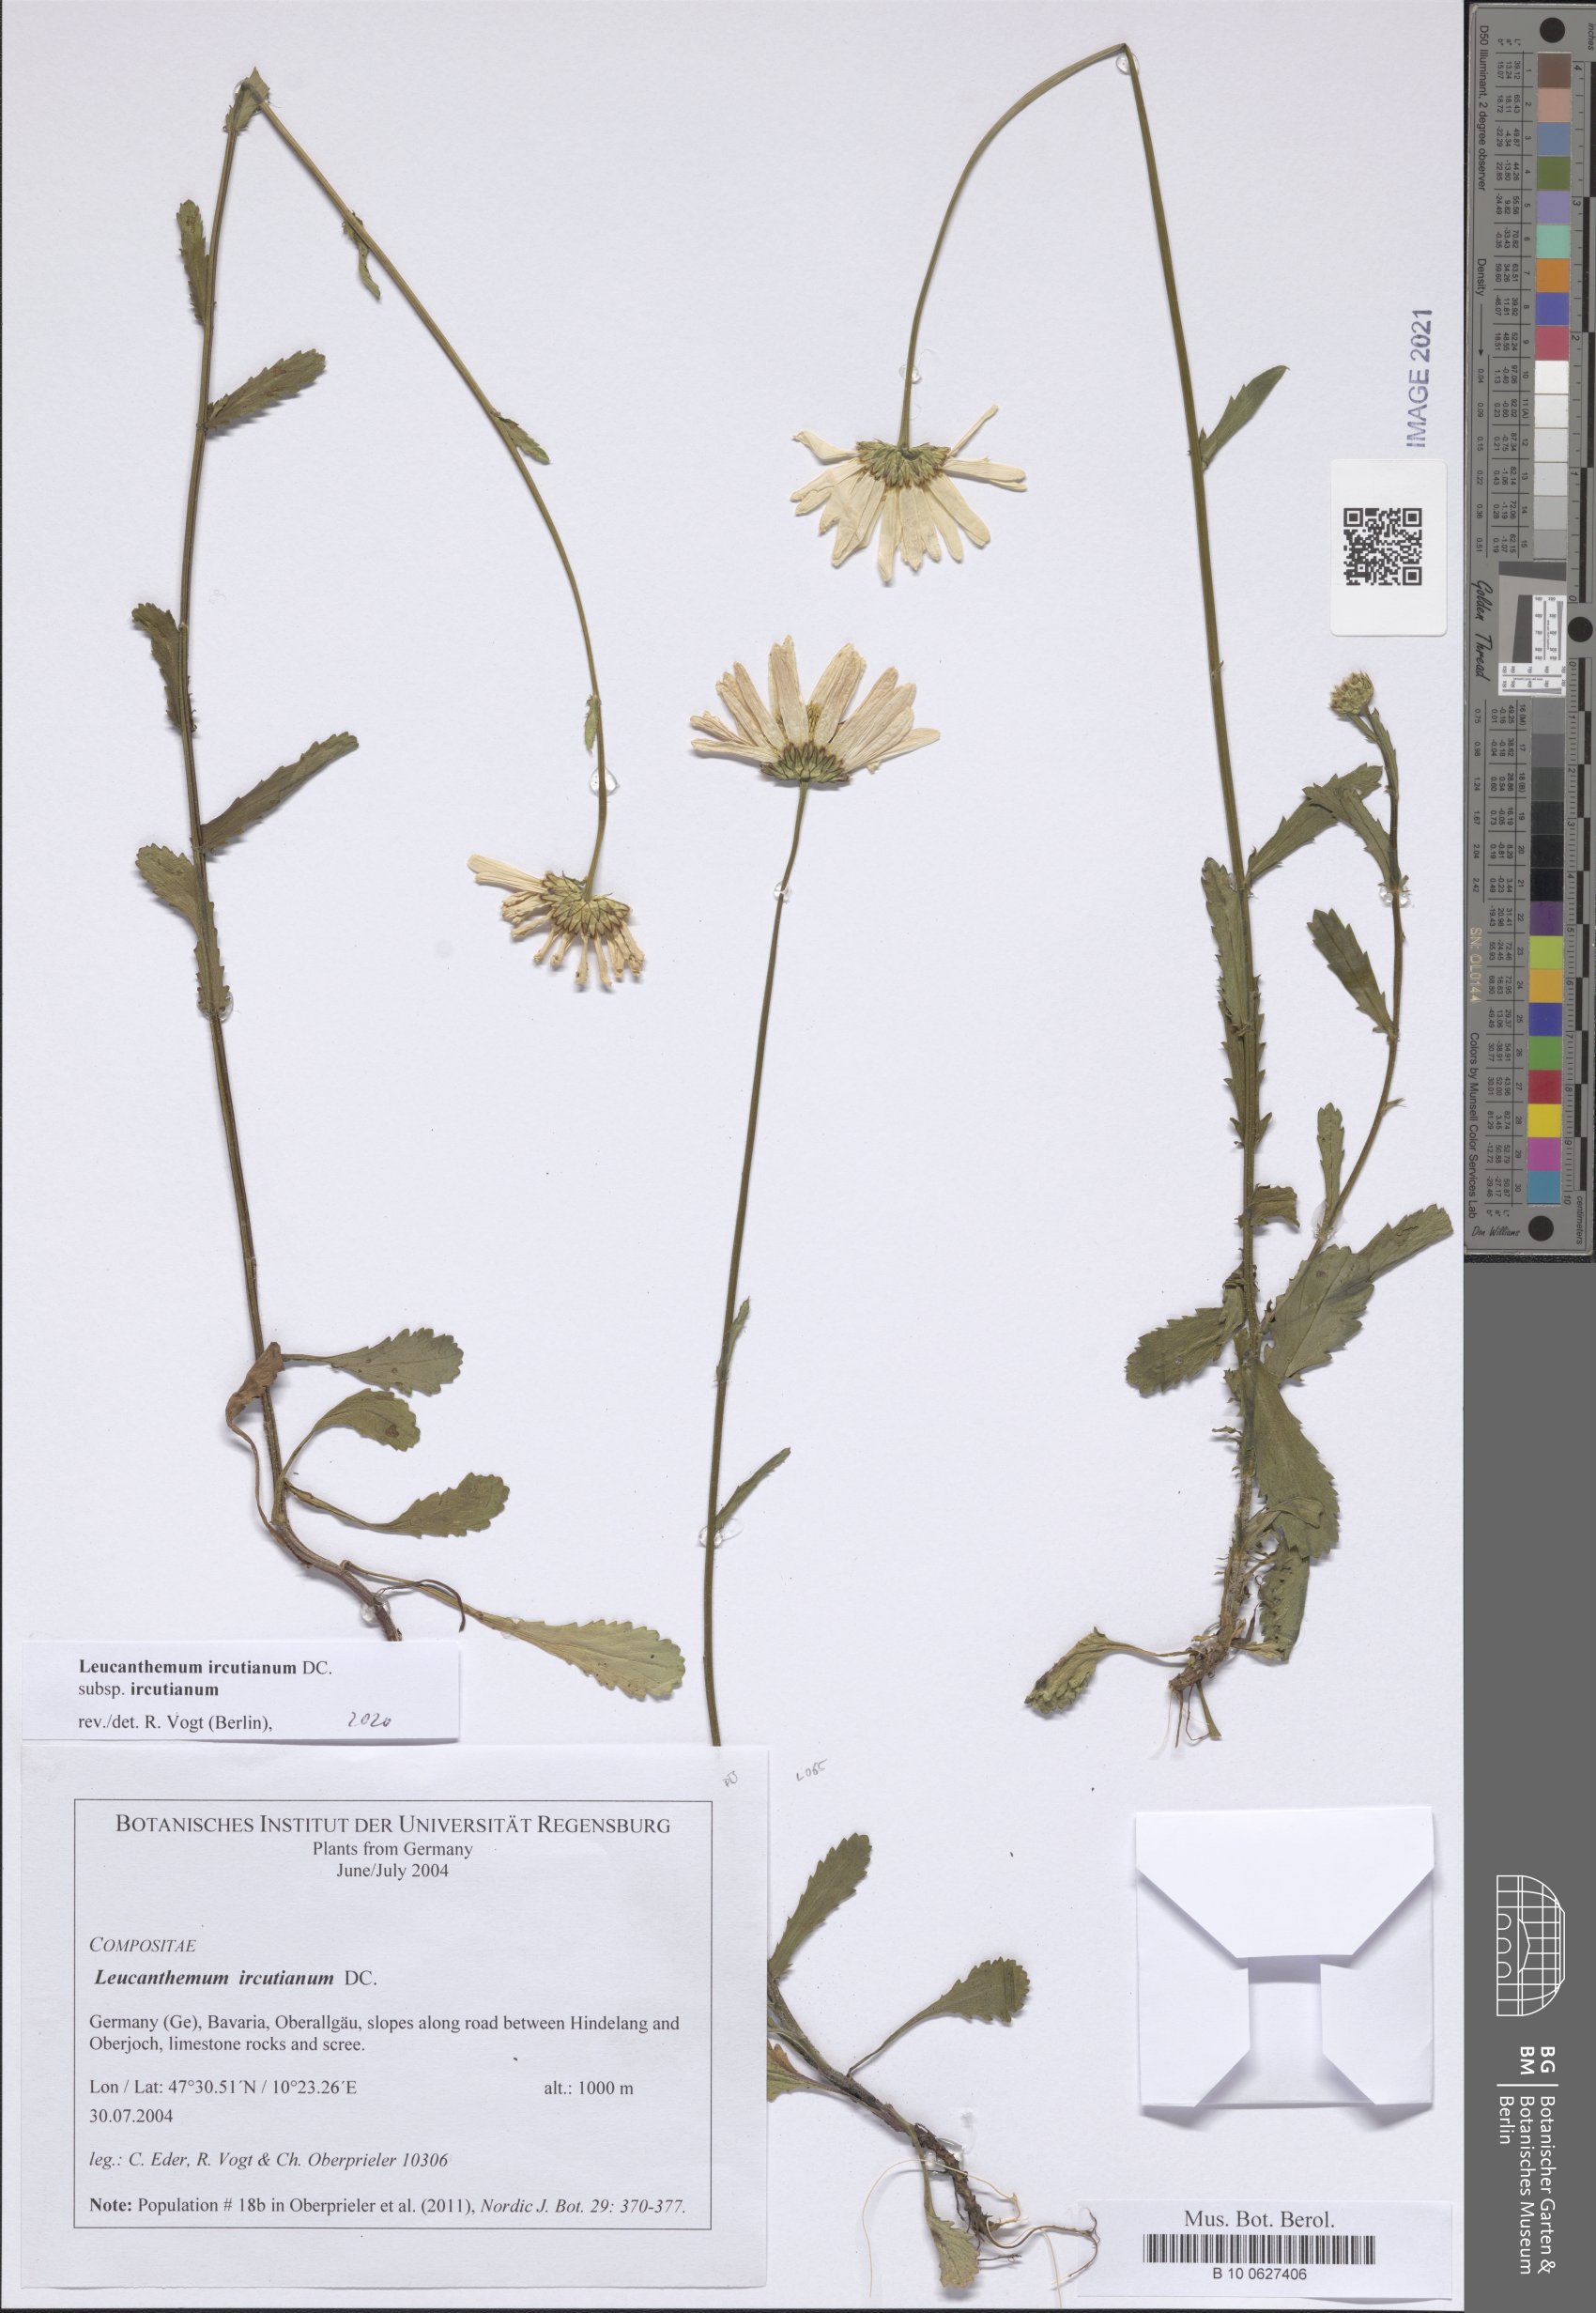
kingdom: Plantae
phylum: Tracheophyta
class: Magnoliopsida
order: Asterales
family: Asteraceae
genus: Leucanthemum
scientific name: Leucanthemum ircutianum
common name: Daisy
